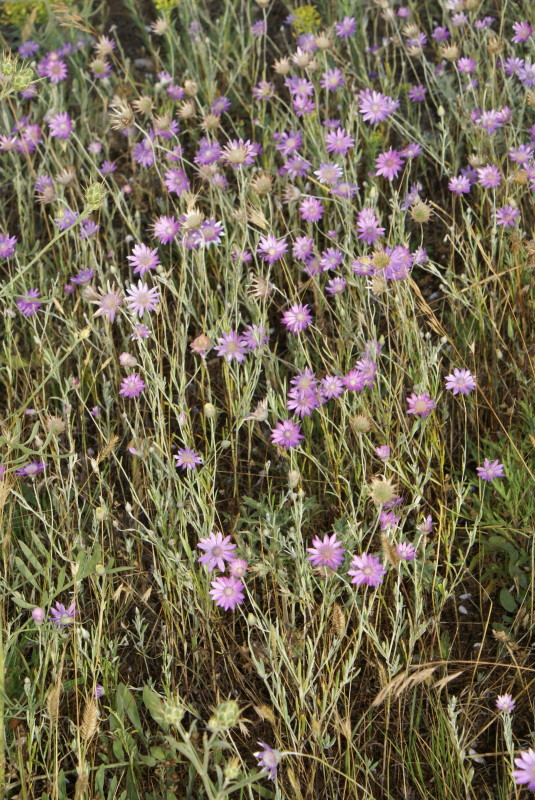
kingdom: Plantae
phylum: Tracheophyta
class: Magnoliopsida
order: Asterales
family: Asteraceae
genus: Xeranthemum
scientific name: Xeranthemum annuum
